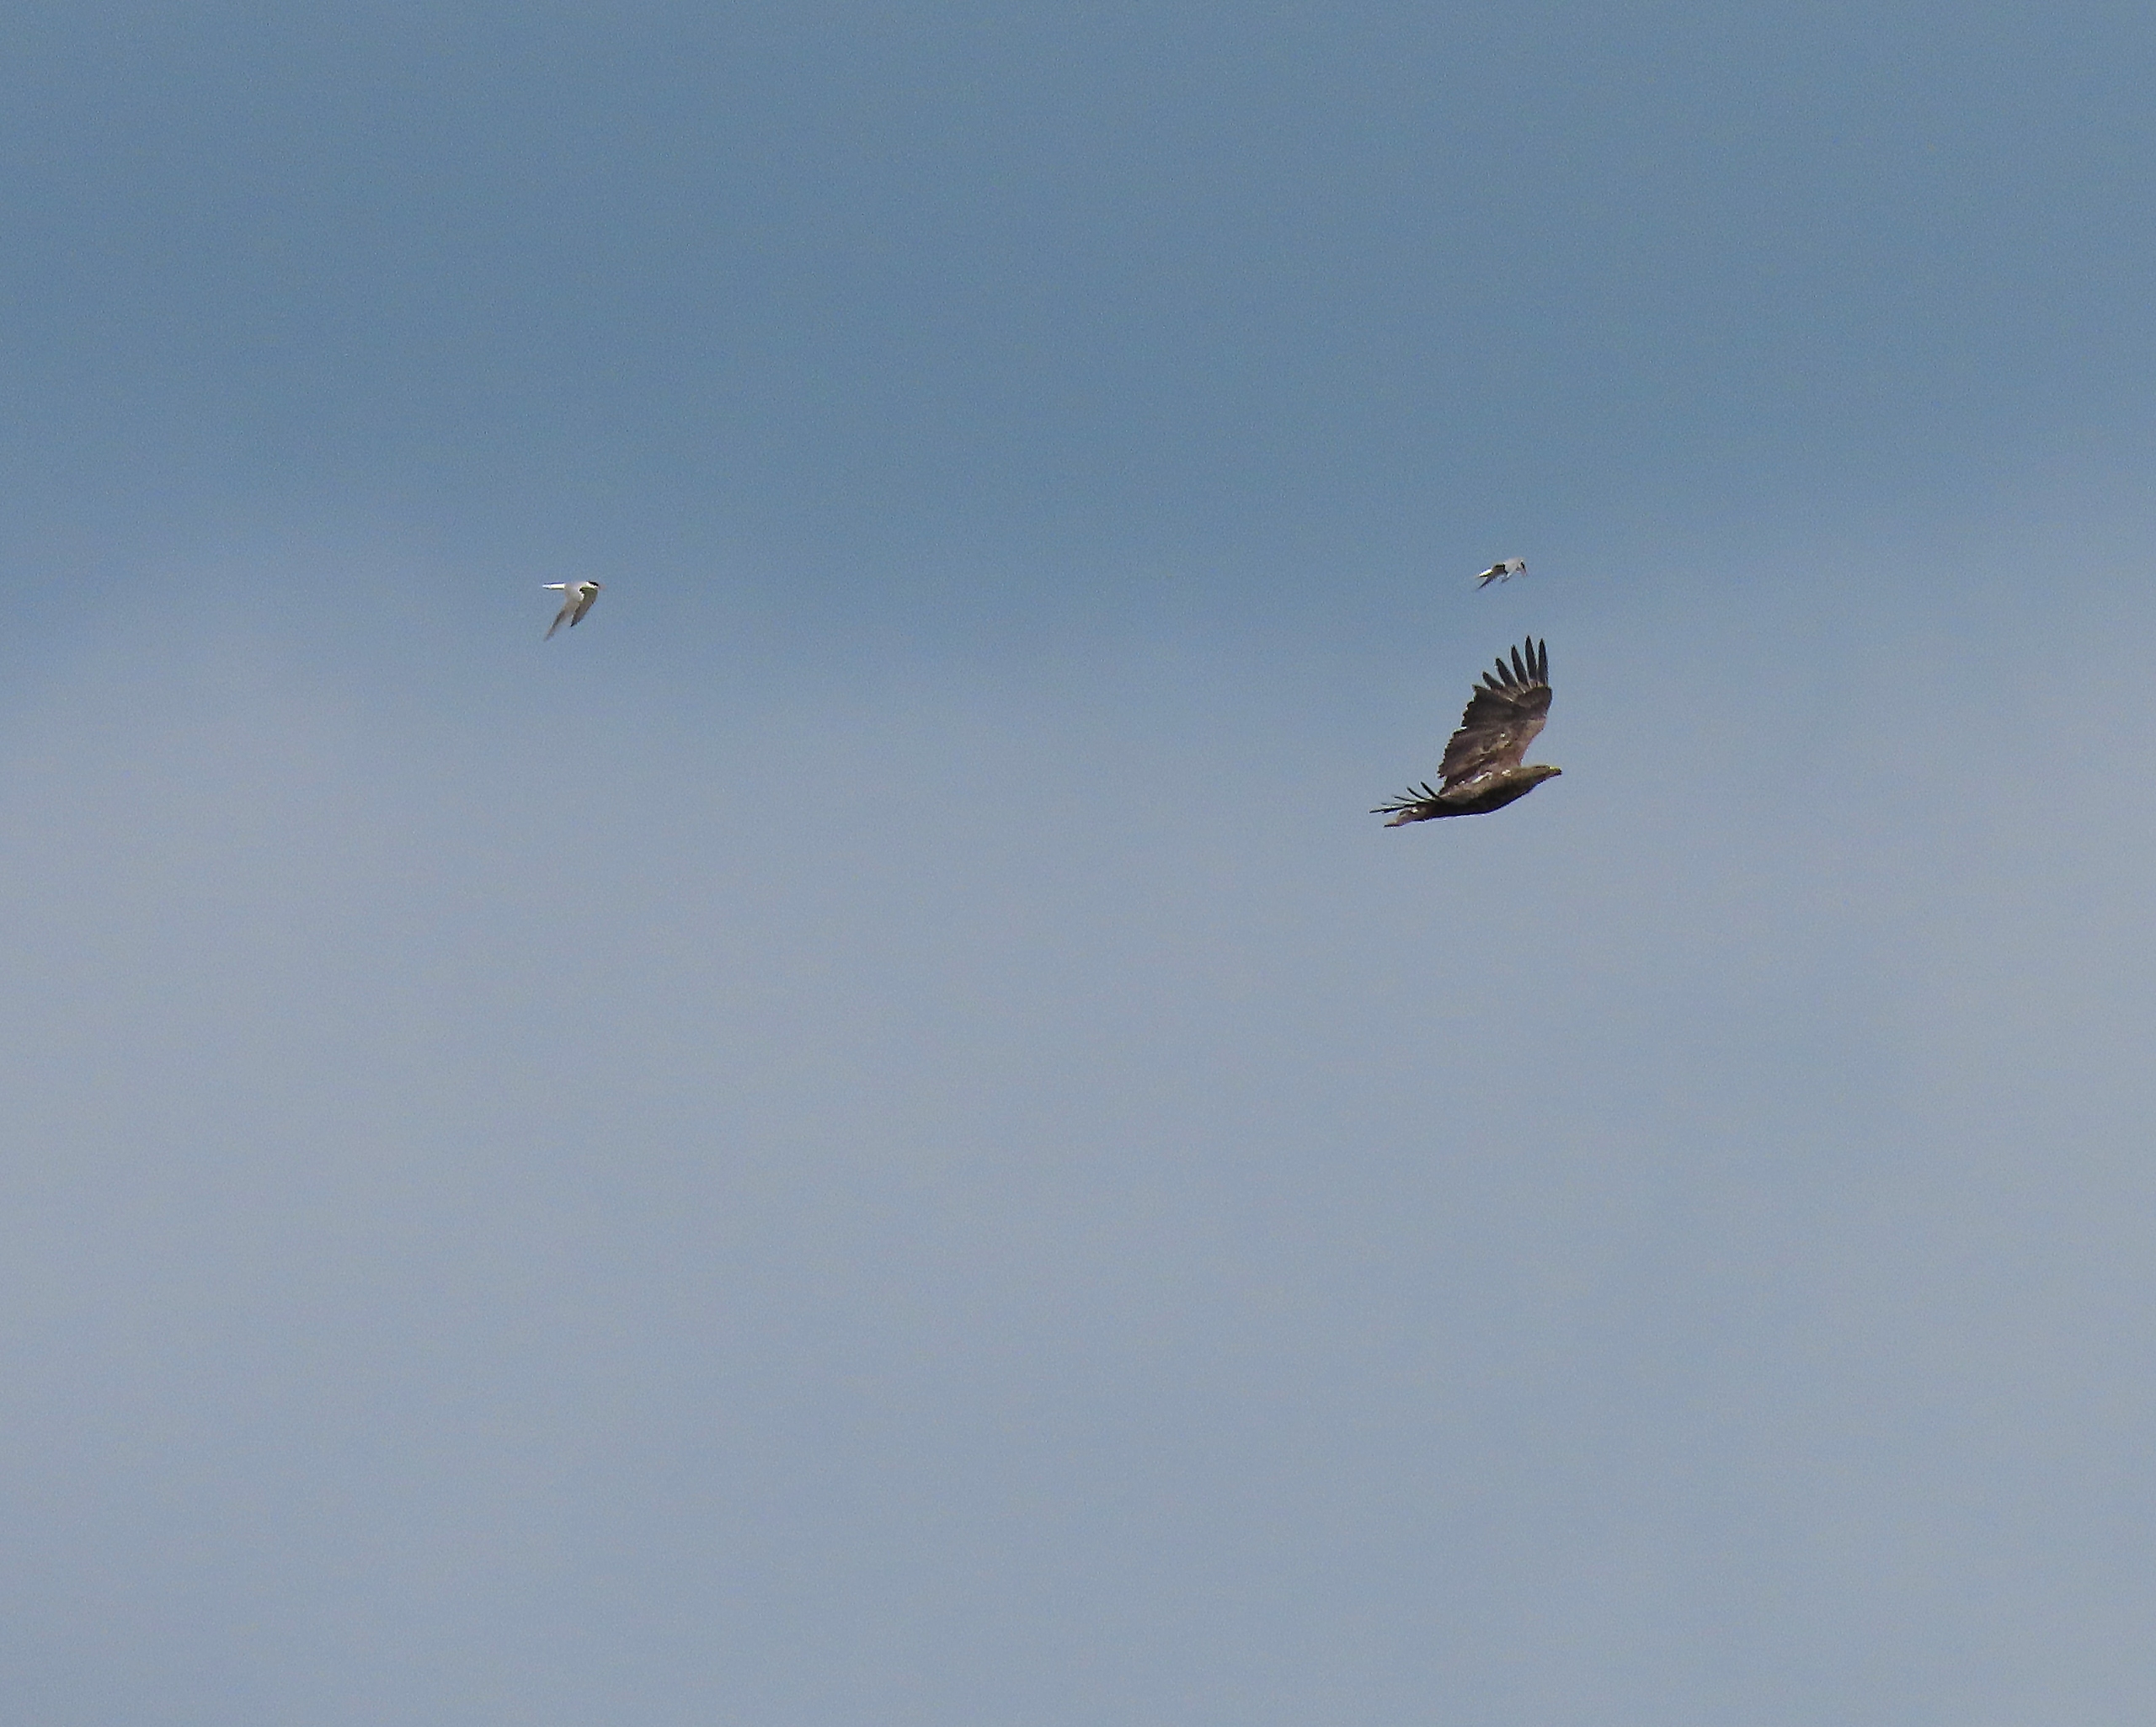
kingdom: Animalia
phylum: Chordata
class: Aves
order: Accipitriformes
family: Accipitridae
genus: Haliaeetus
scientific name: Haliaeetus albicilla
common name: Havørn
